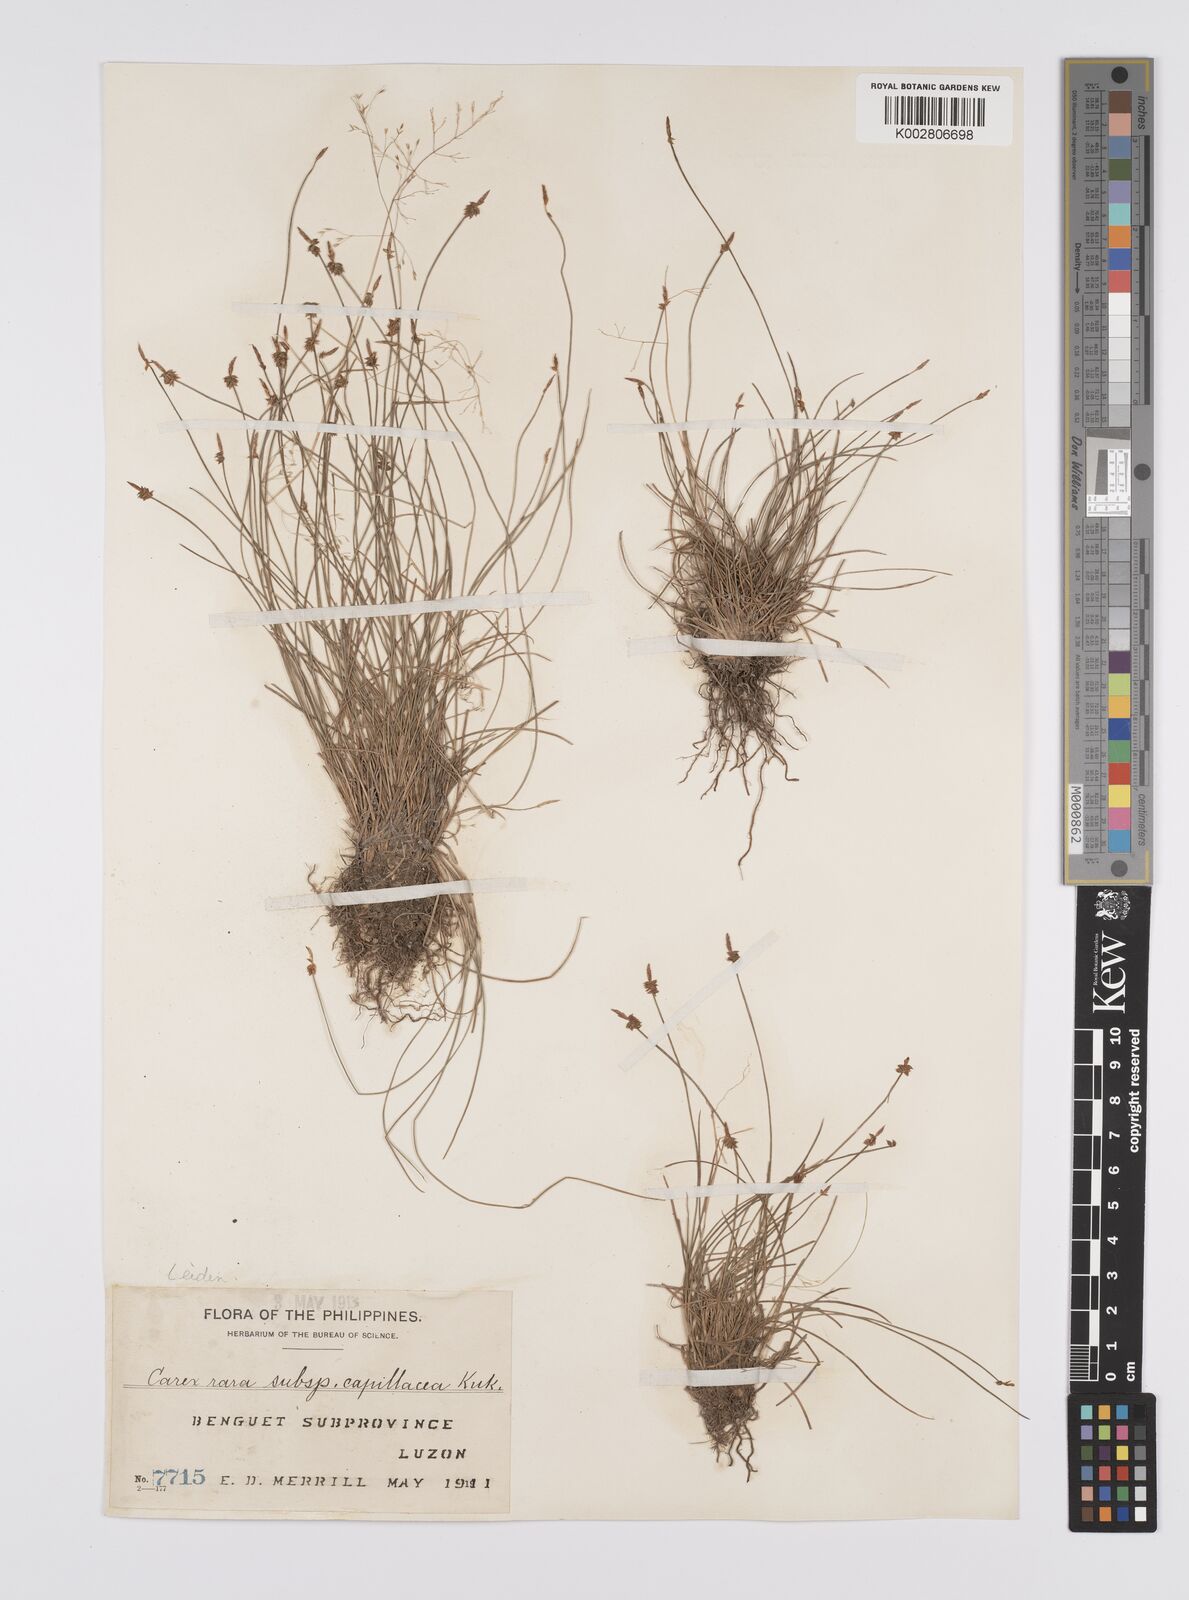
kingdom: Plantae
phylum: Tracheophyta
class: Liliopsida
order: Poales
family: Cyperaceae
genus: Carex
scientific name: Carex capillacea
